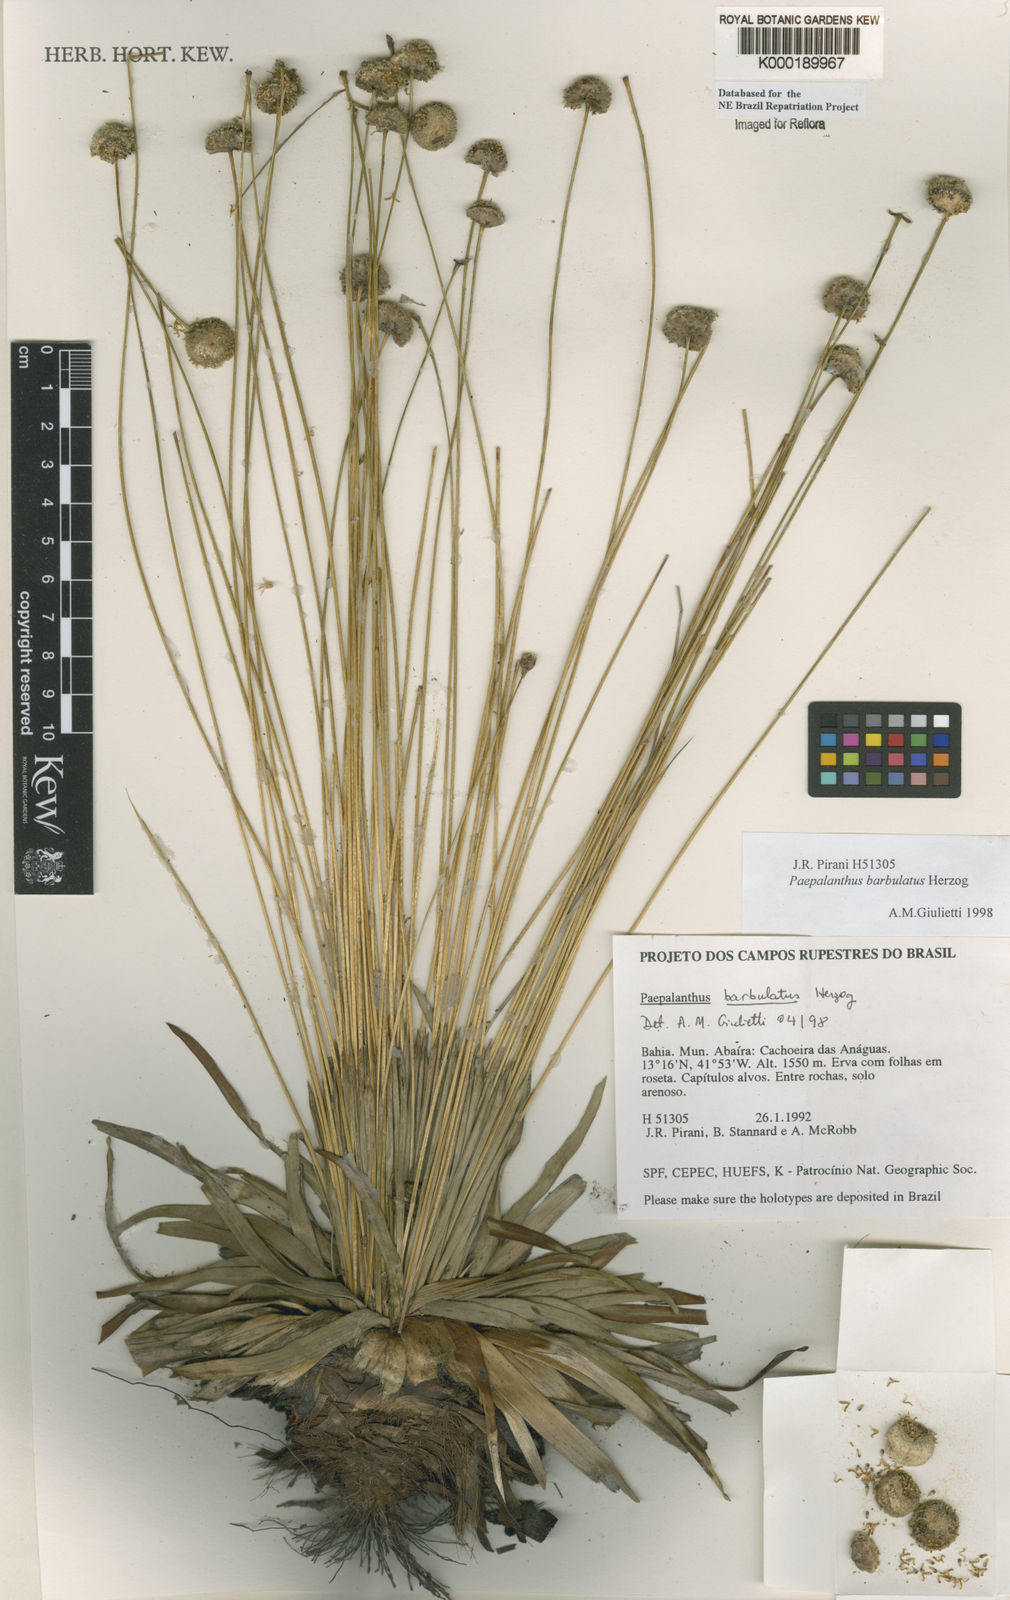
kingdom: Plantae
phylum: Tracheophyta
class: Liliopsida
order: Poales
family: Eriocaulaceae
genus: Paepalanthus
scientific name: Paepalanthus barbulatus
